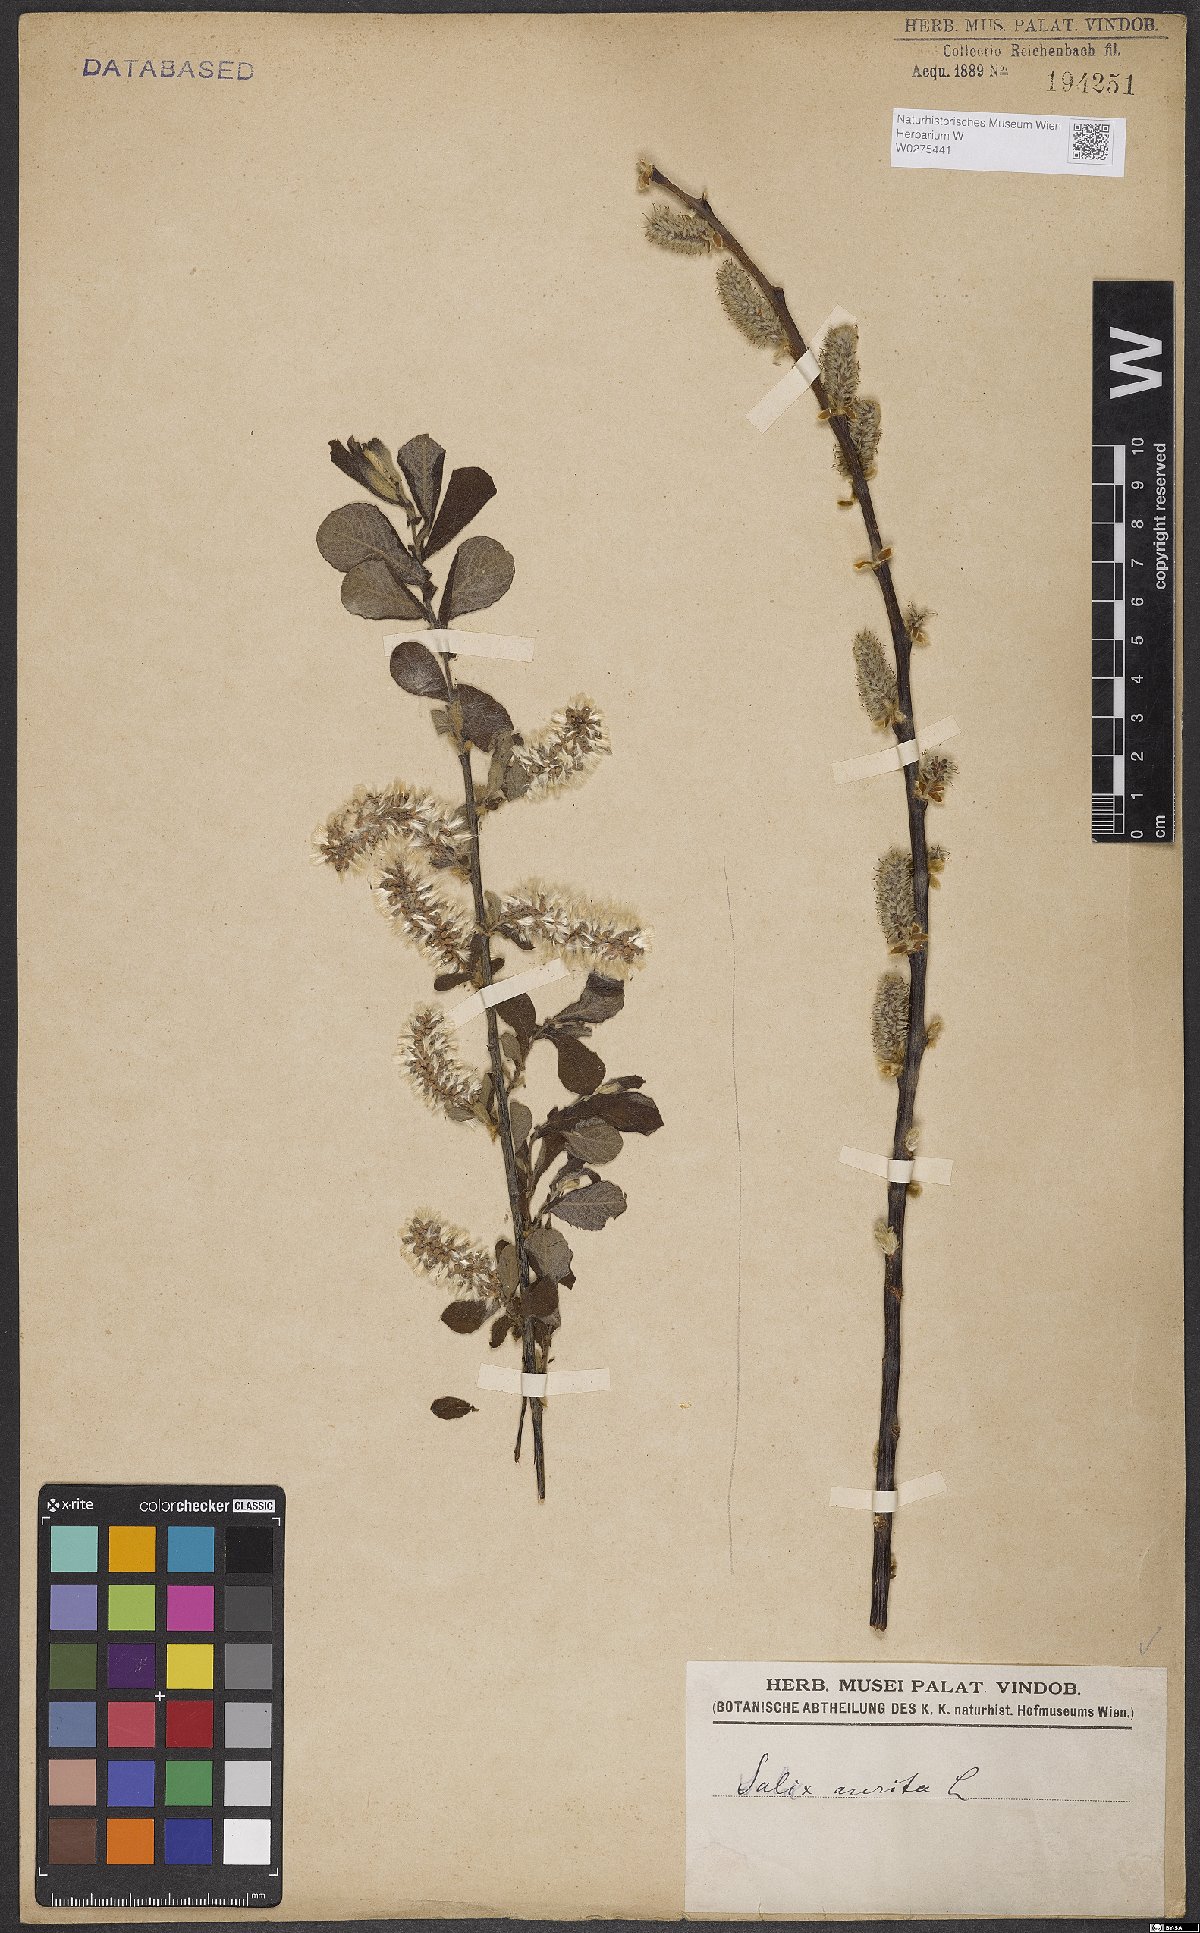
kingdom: Plantae
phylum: Tracheophyta
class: Magnoliopsida
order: Malpighiales
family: Salicaceae
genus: Salix
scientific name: Salix aurita
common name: Eared willow
